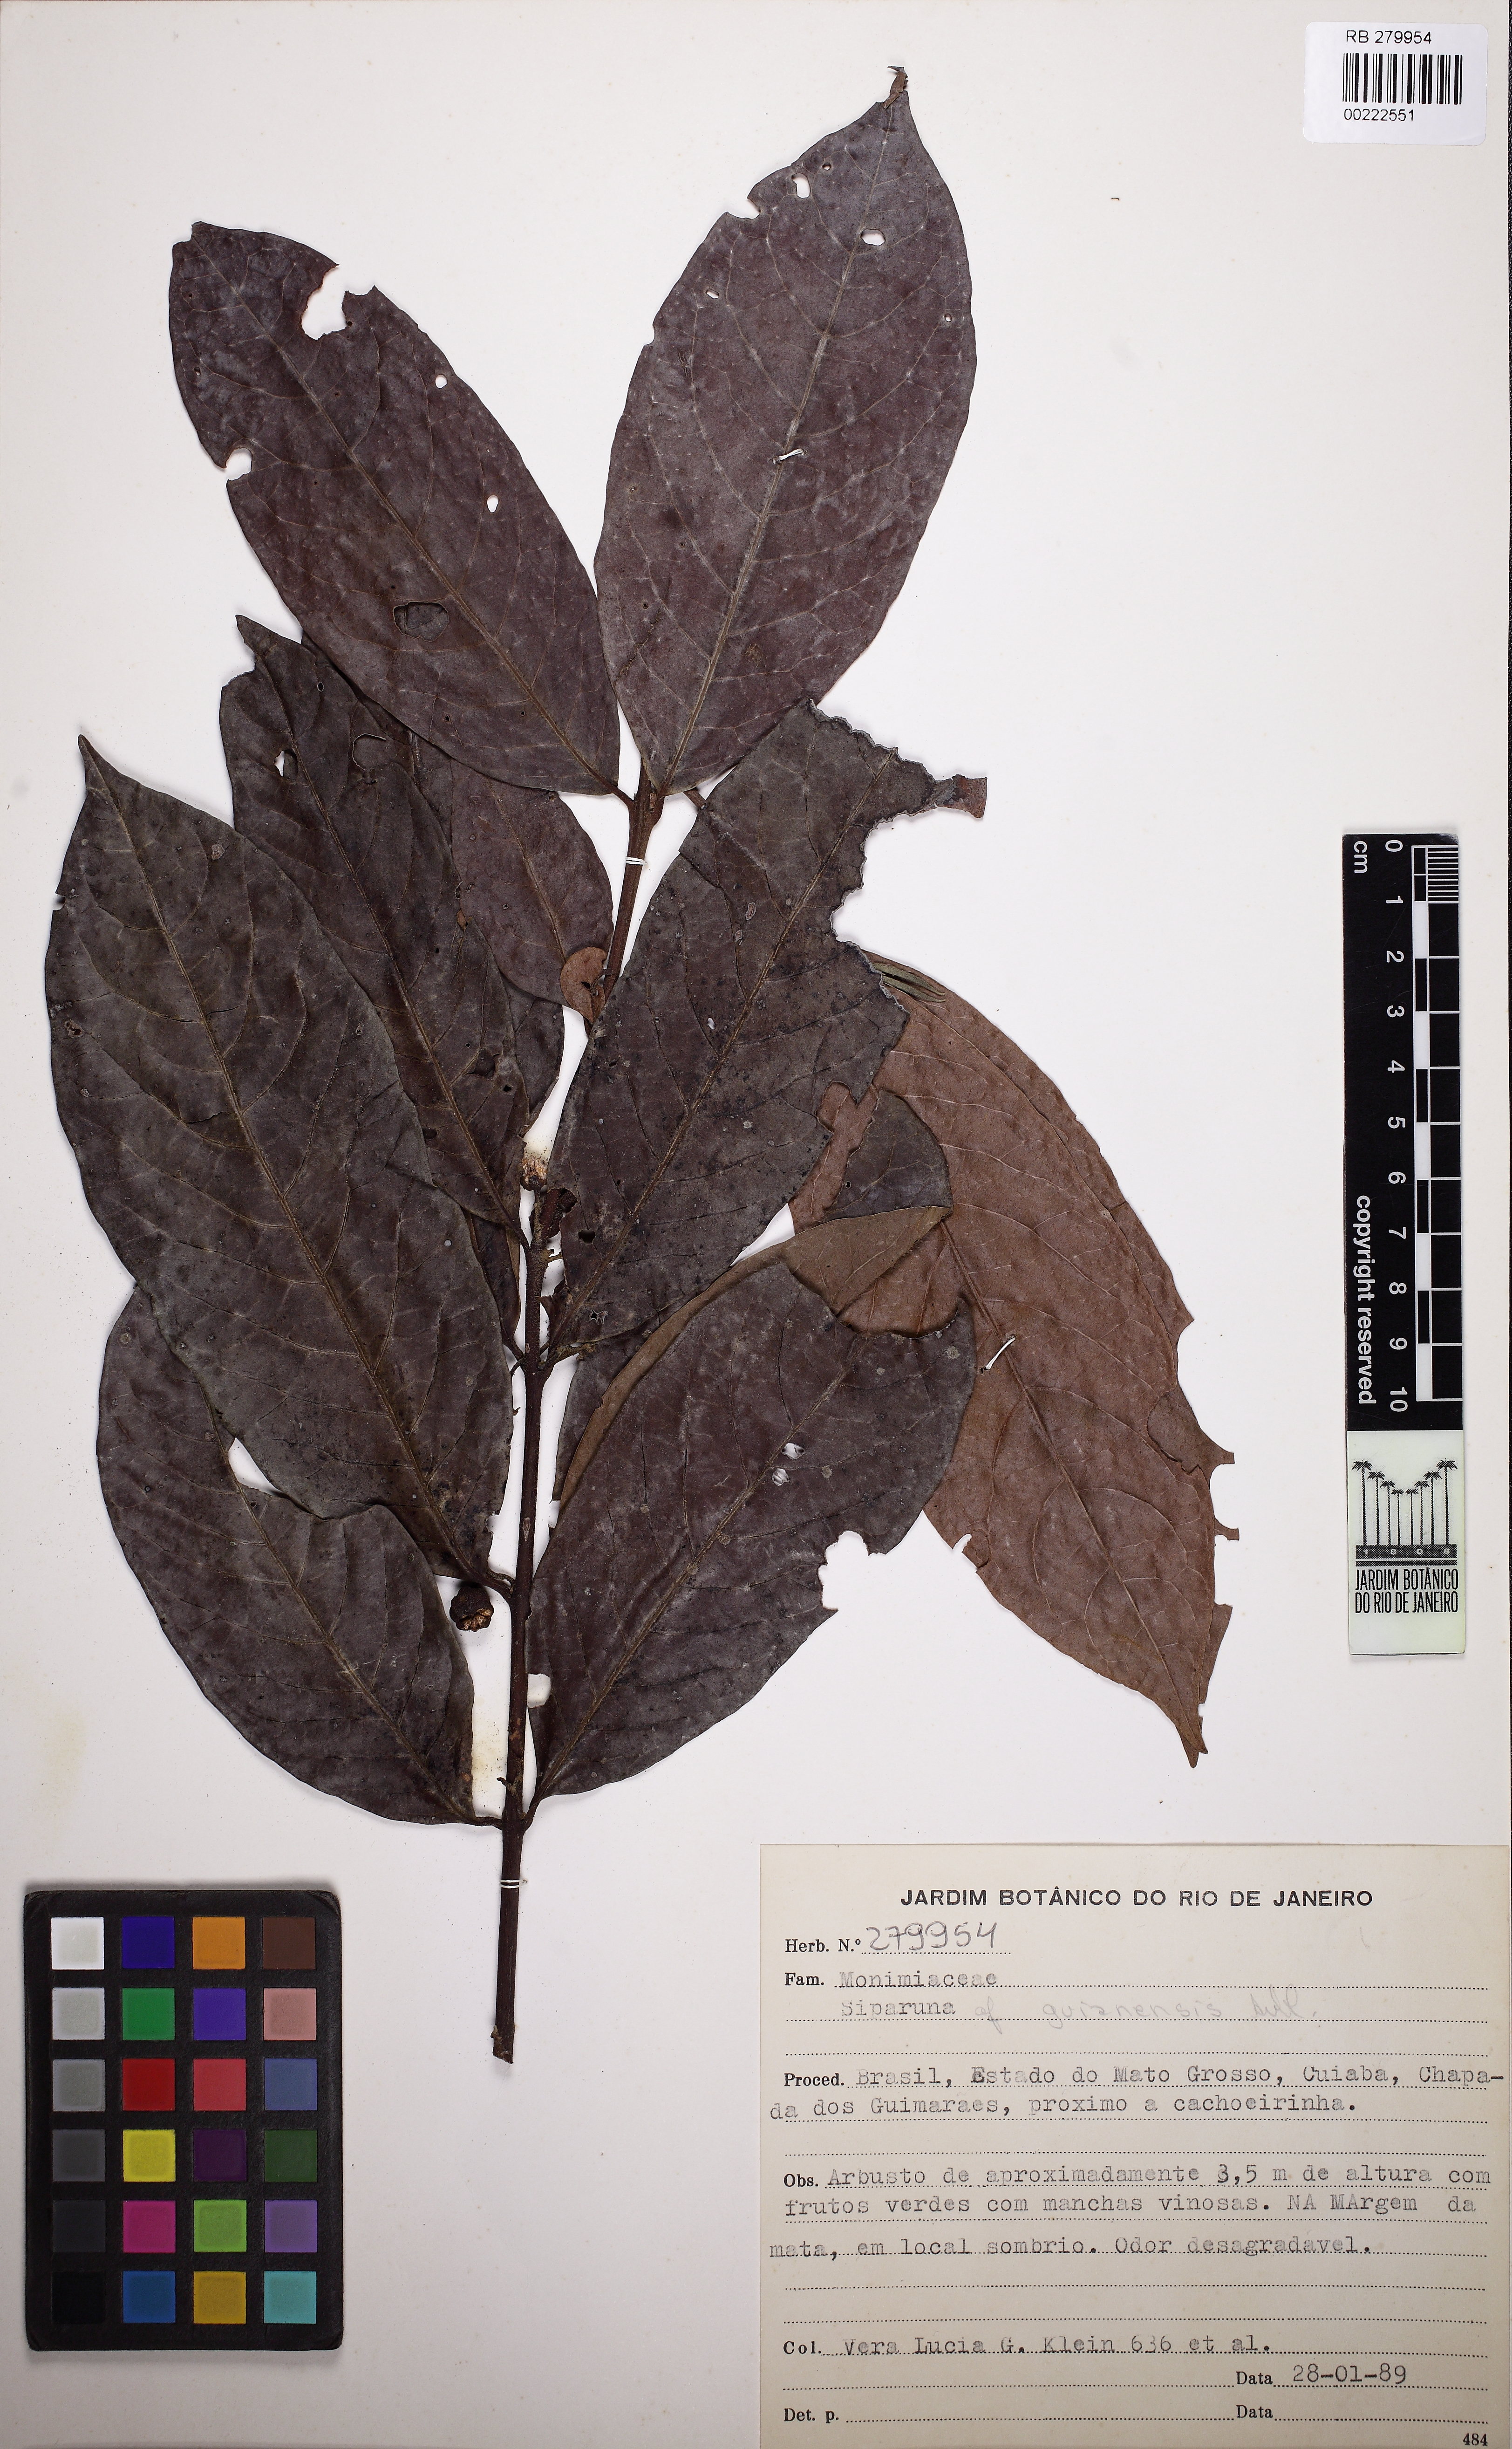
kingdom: Plantae
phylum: Tracheophyta
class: Magnoliopsida
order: Laurales
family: Siparunaceae
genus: Siparuna
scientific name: Siparuna guianensis
